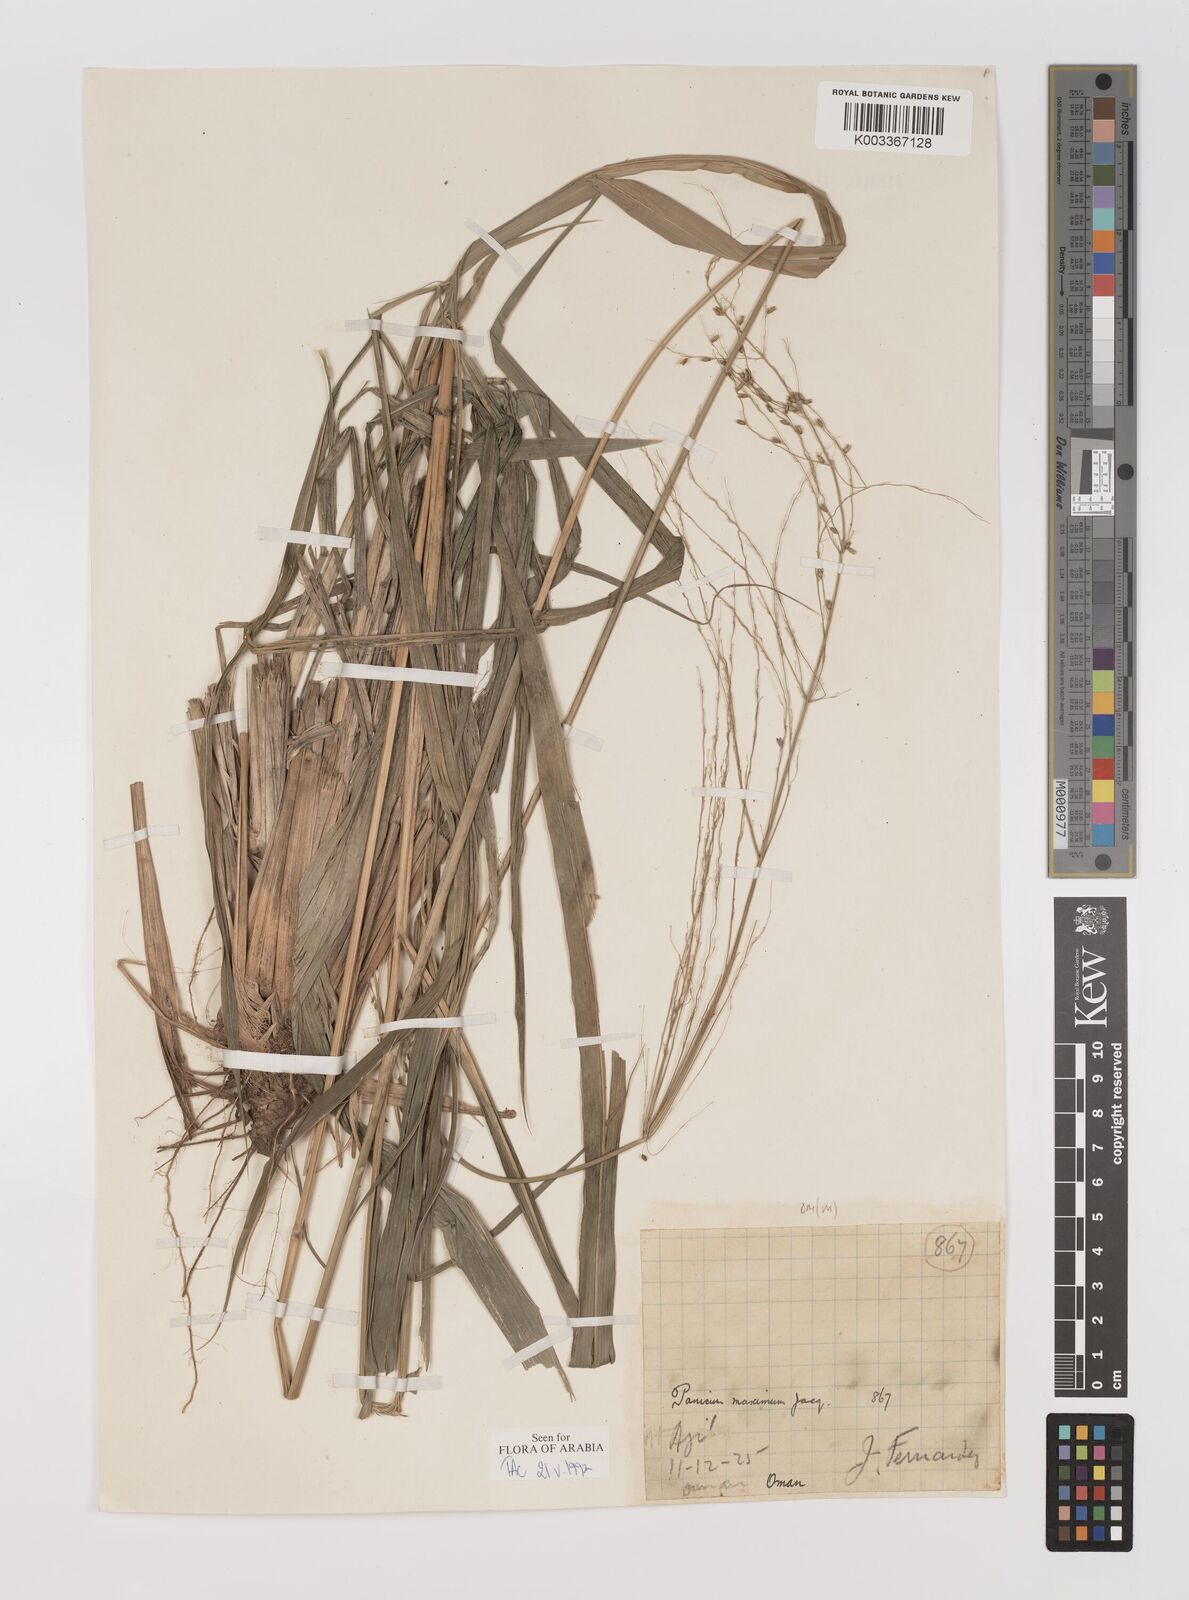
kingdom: Plantae
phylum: Tracheophyta
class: Liliopsida
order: Poales
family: Poaceae
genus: Megathyrsus
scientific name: Megathyrsus maximus
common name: Guineagrass
